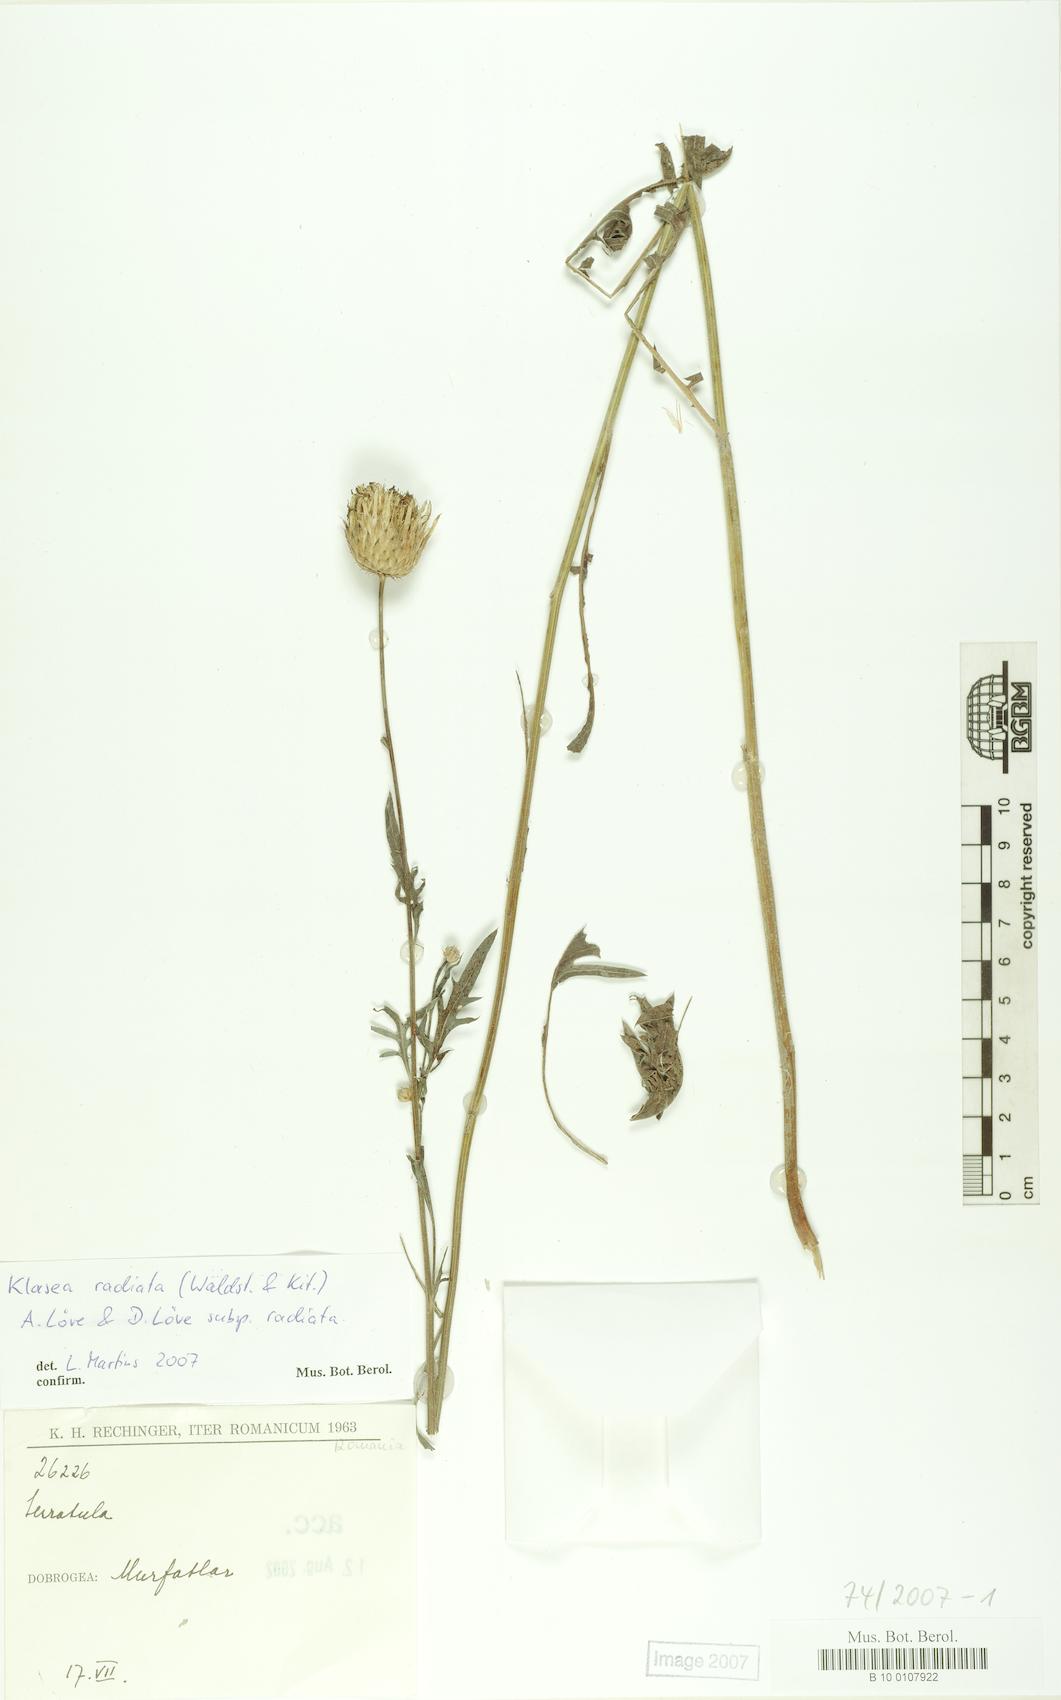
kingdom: Plantae
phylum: Tracheophyta
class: Magnoliopsida
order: Asterales
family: Asteraceae
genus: Klasea
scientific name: Klasea radiata
